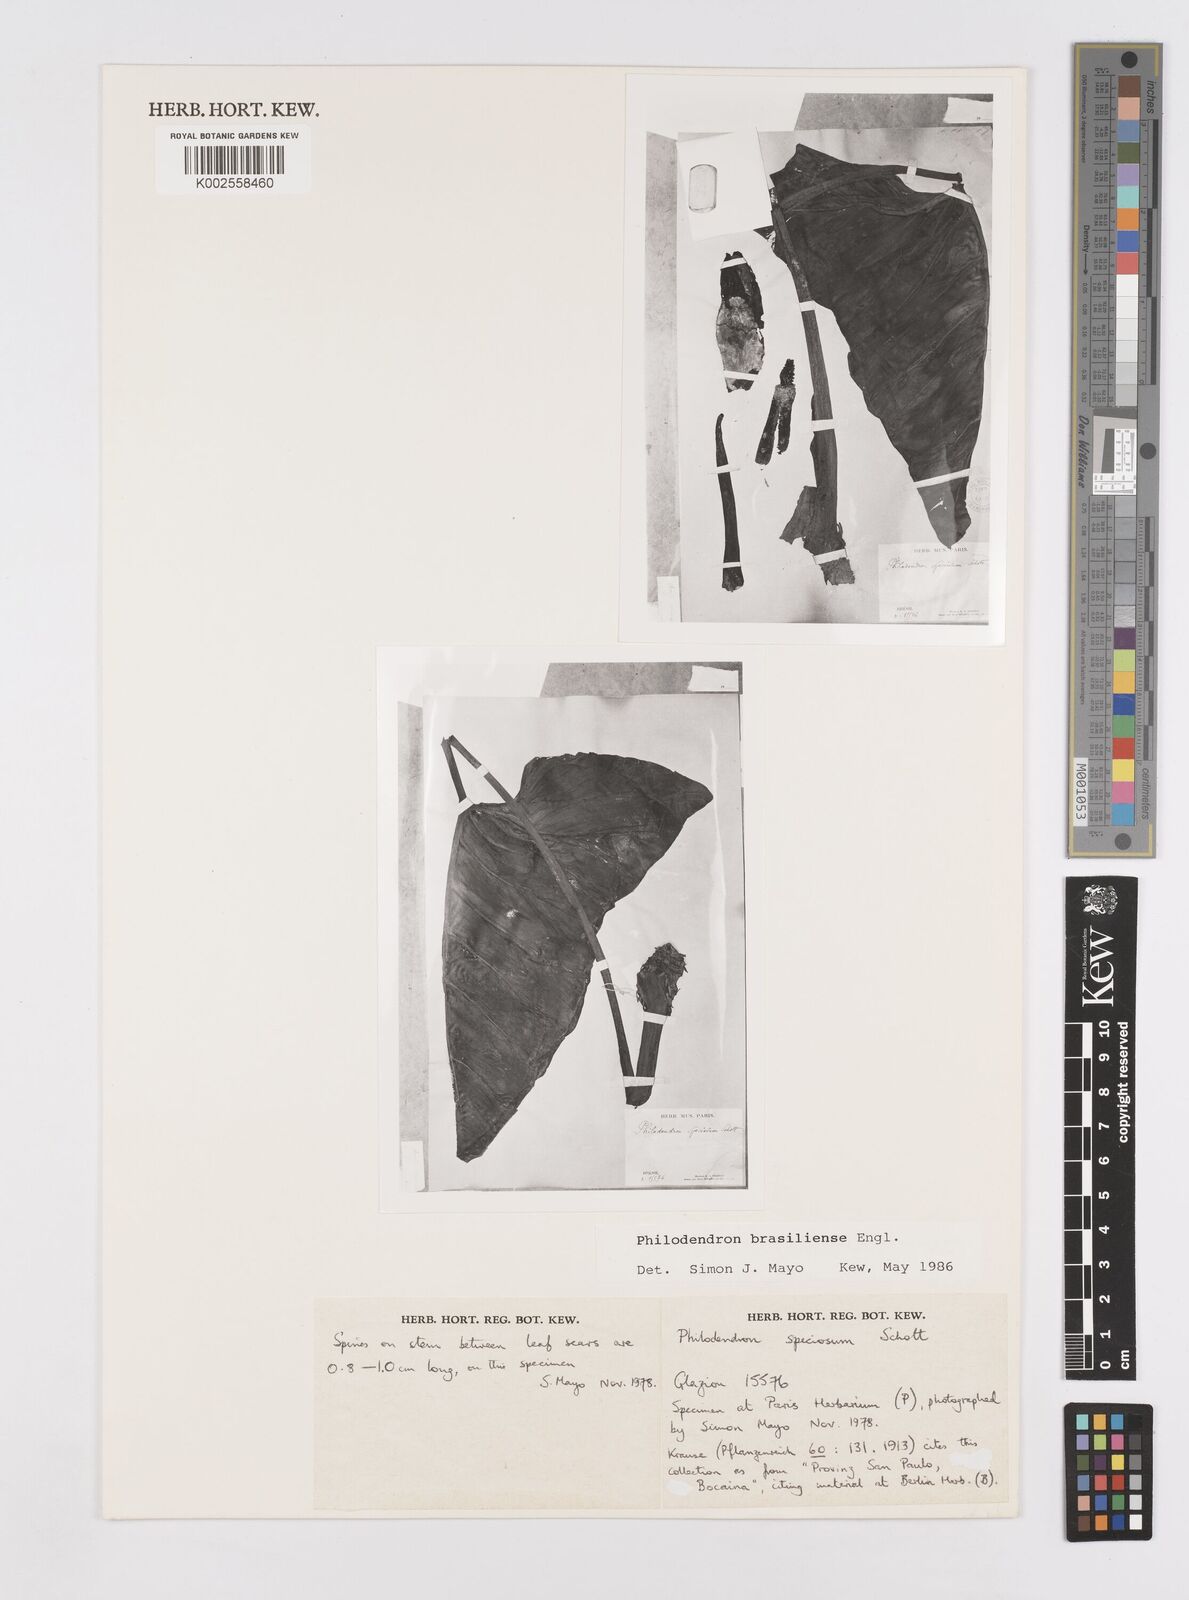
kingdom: Plantae
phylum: Tracheophyta
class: Liliopsida
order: Alismatales
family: Araceae
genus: Thaumatophyllum
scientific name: Thaumatophyllum brasiliense
